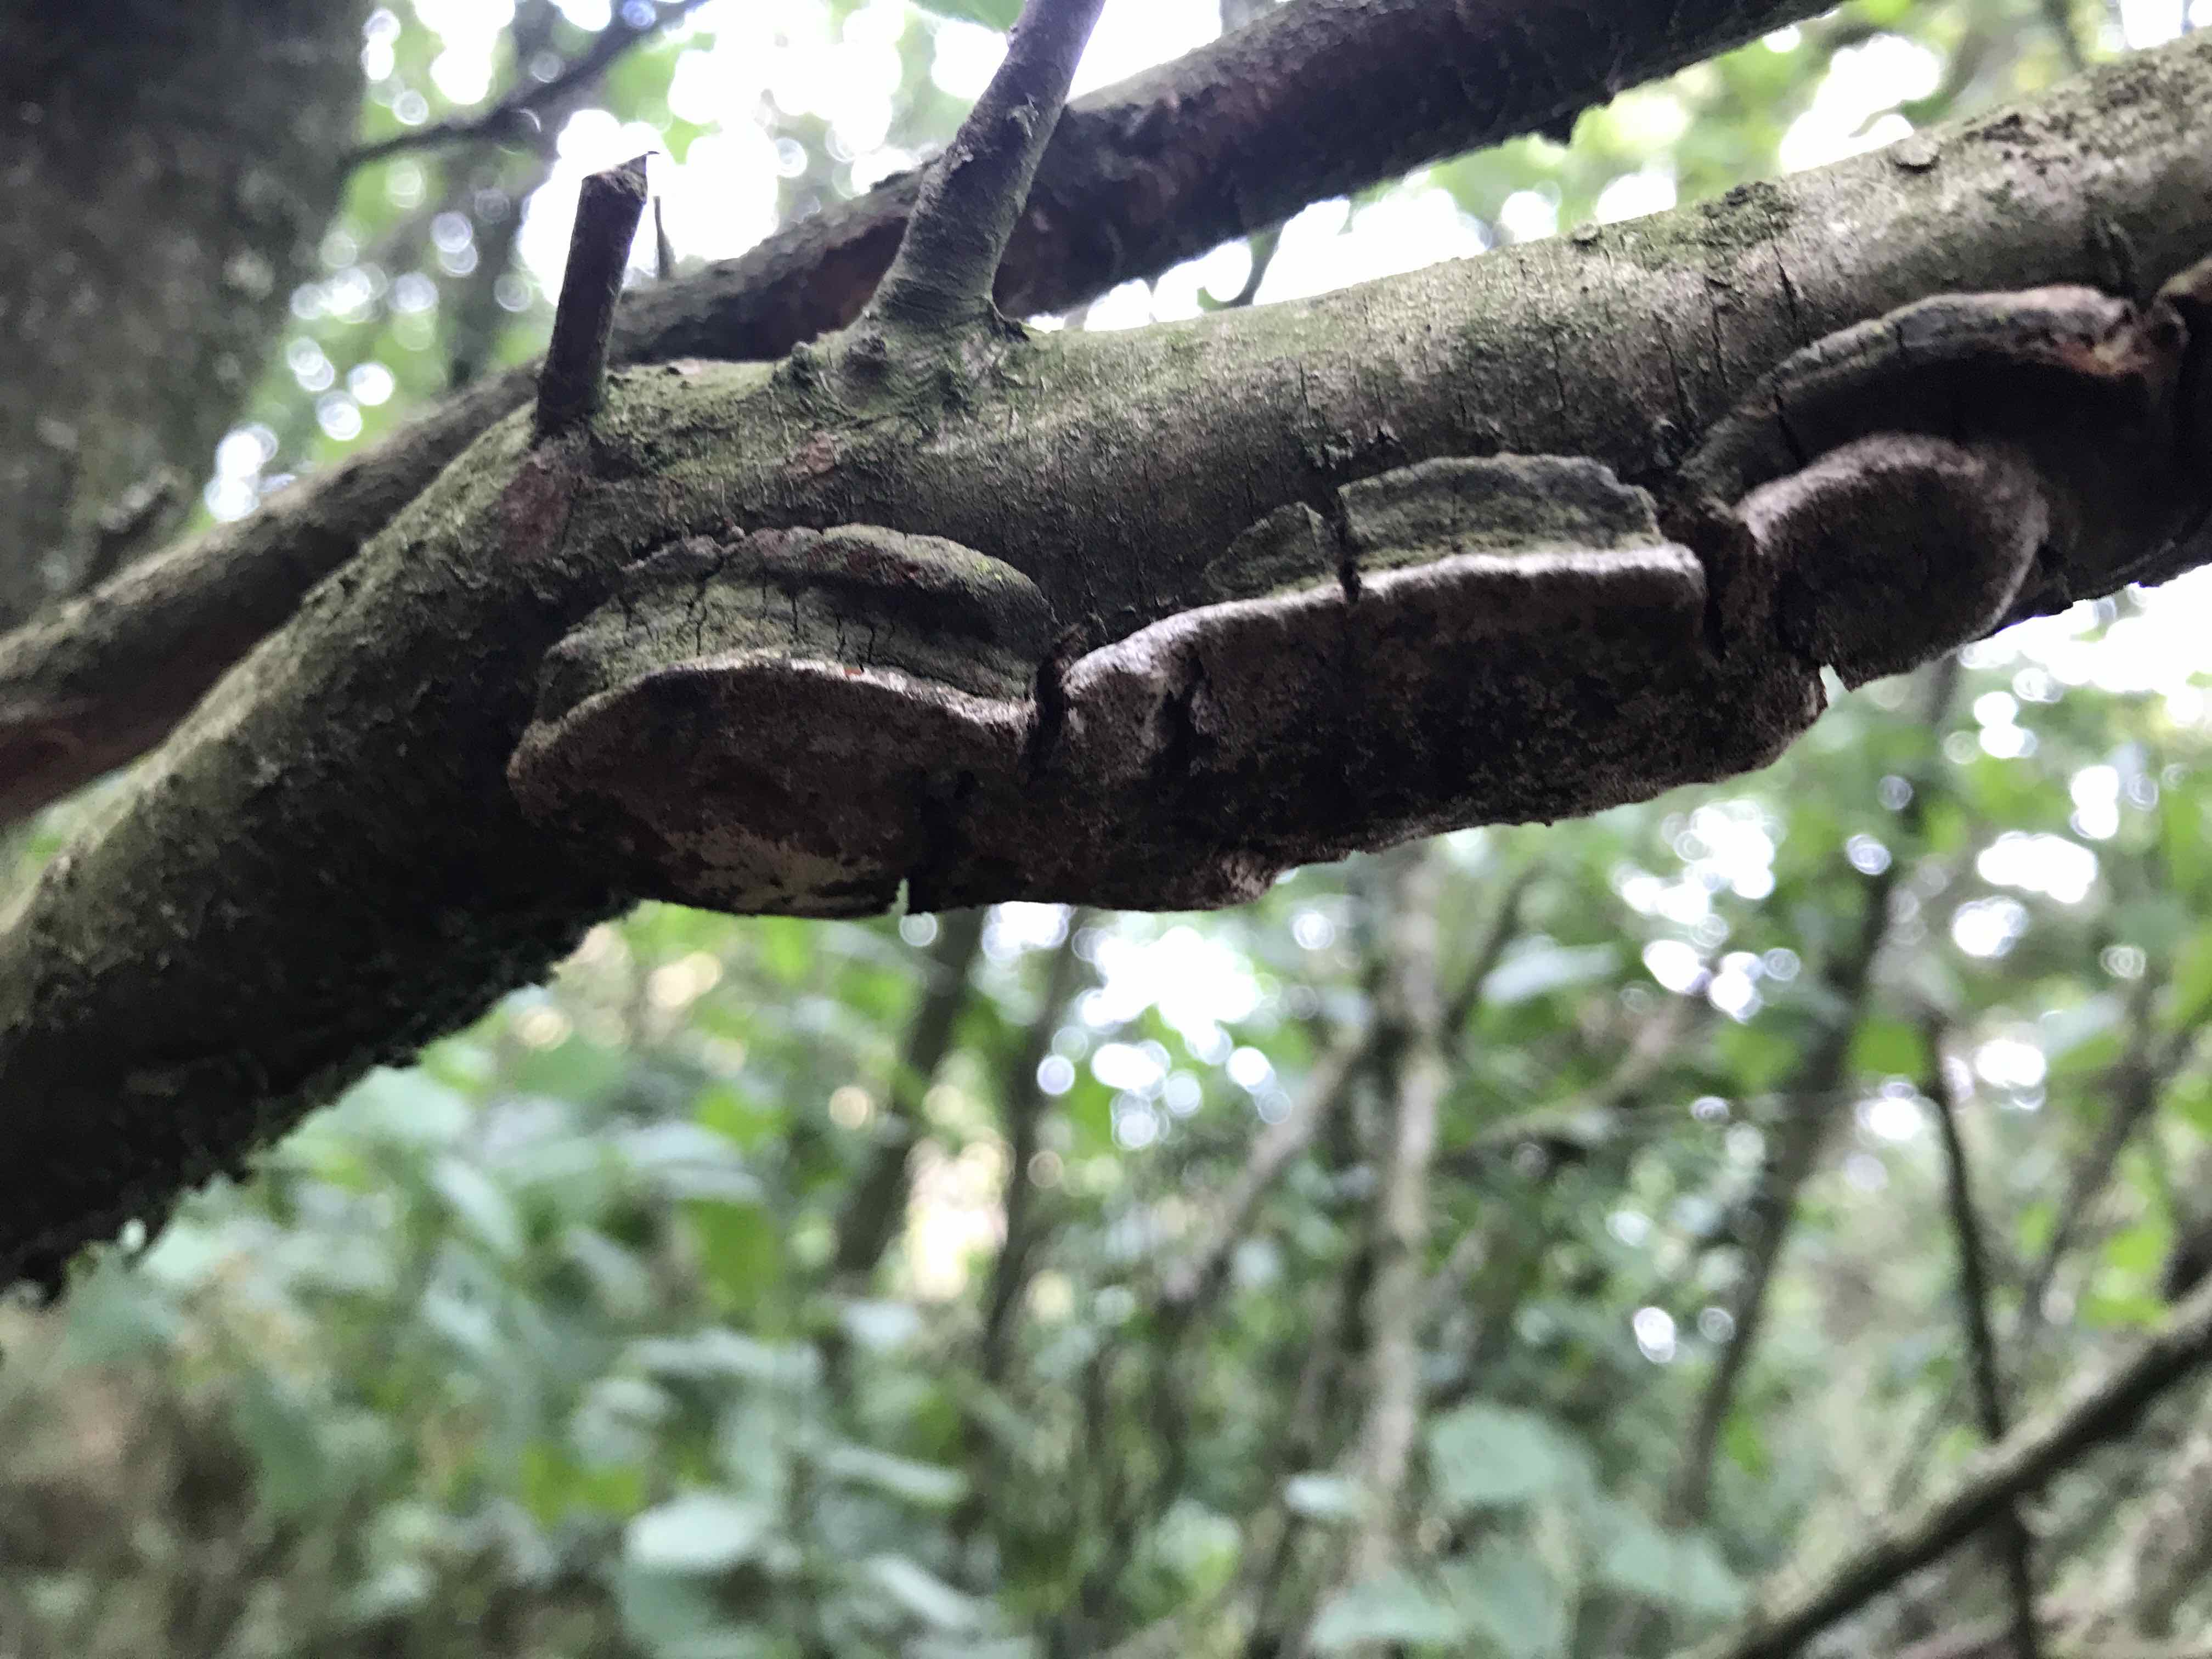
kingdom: Fungi
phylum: Basidiomycota
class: Agaricomycetes
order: Hymenochaetales
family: Hymenochaetaceae
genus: Phellinus
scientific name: Phellinus pomaceus
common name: blomme-ildporesvamp
